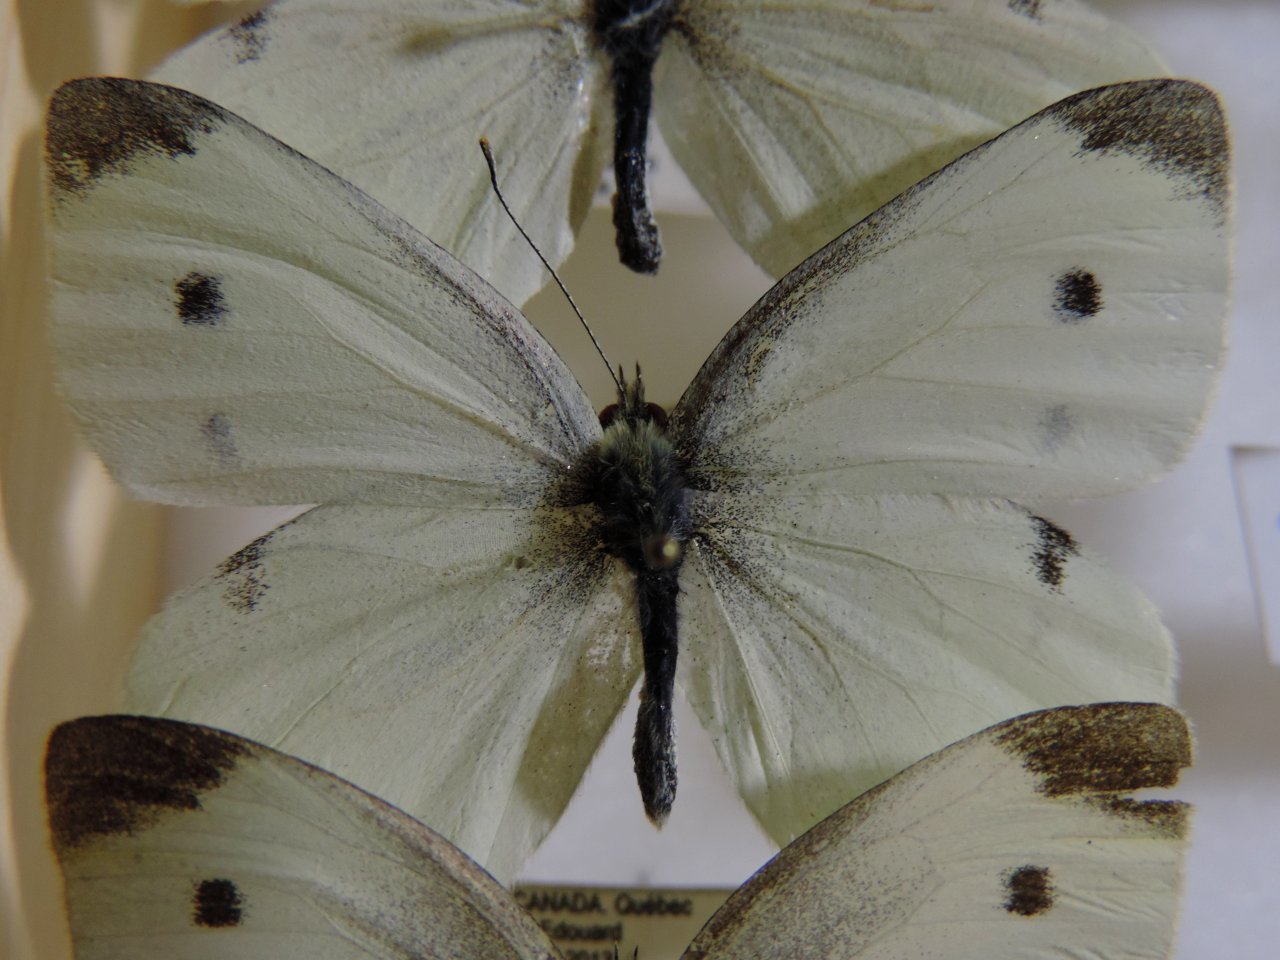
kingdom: Animalia
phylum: Arthropoda
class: Insecta
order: Lepidoptera
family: Pieridae
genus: Pieris
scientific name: Pieris rapae
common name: Cabbage White
